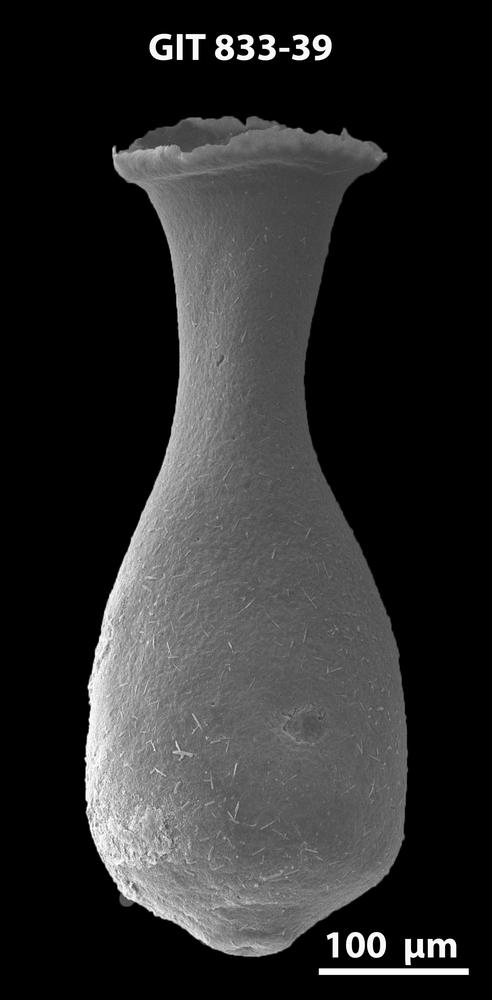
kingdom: Animalia
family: Lagenochitinidae
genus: Lagenochitina
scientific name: Lagenochitina megaesthonica
